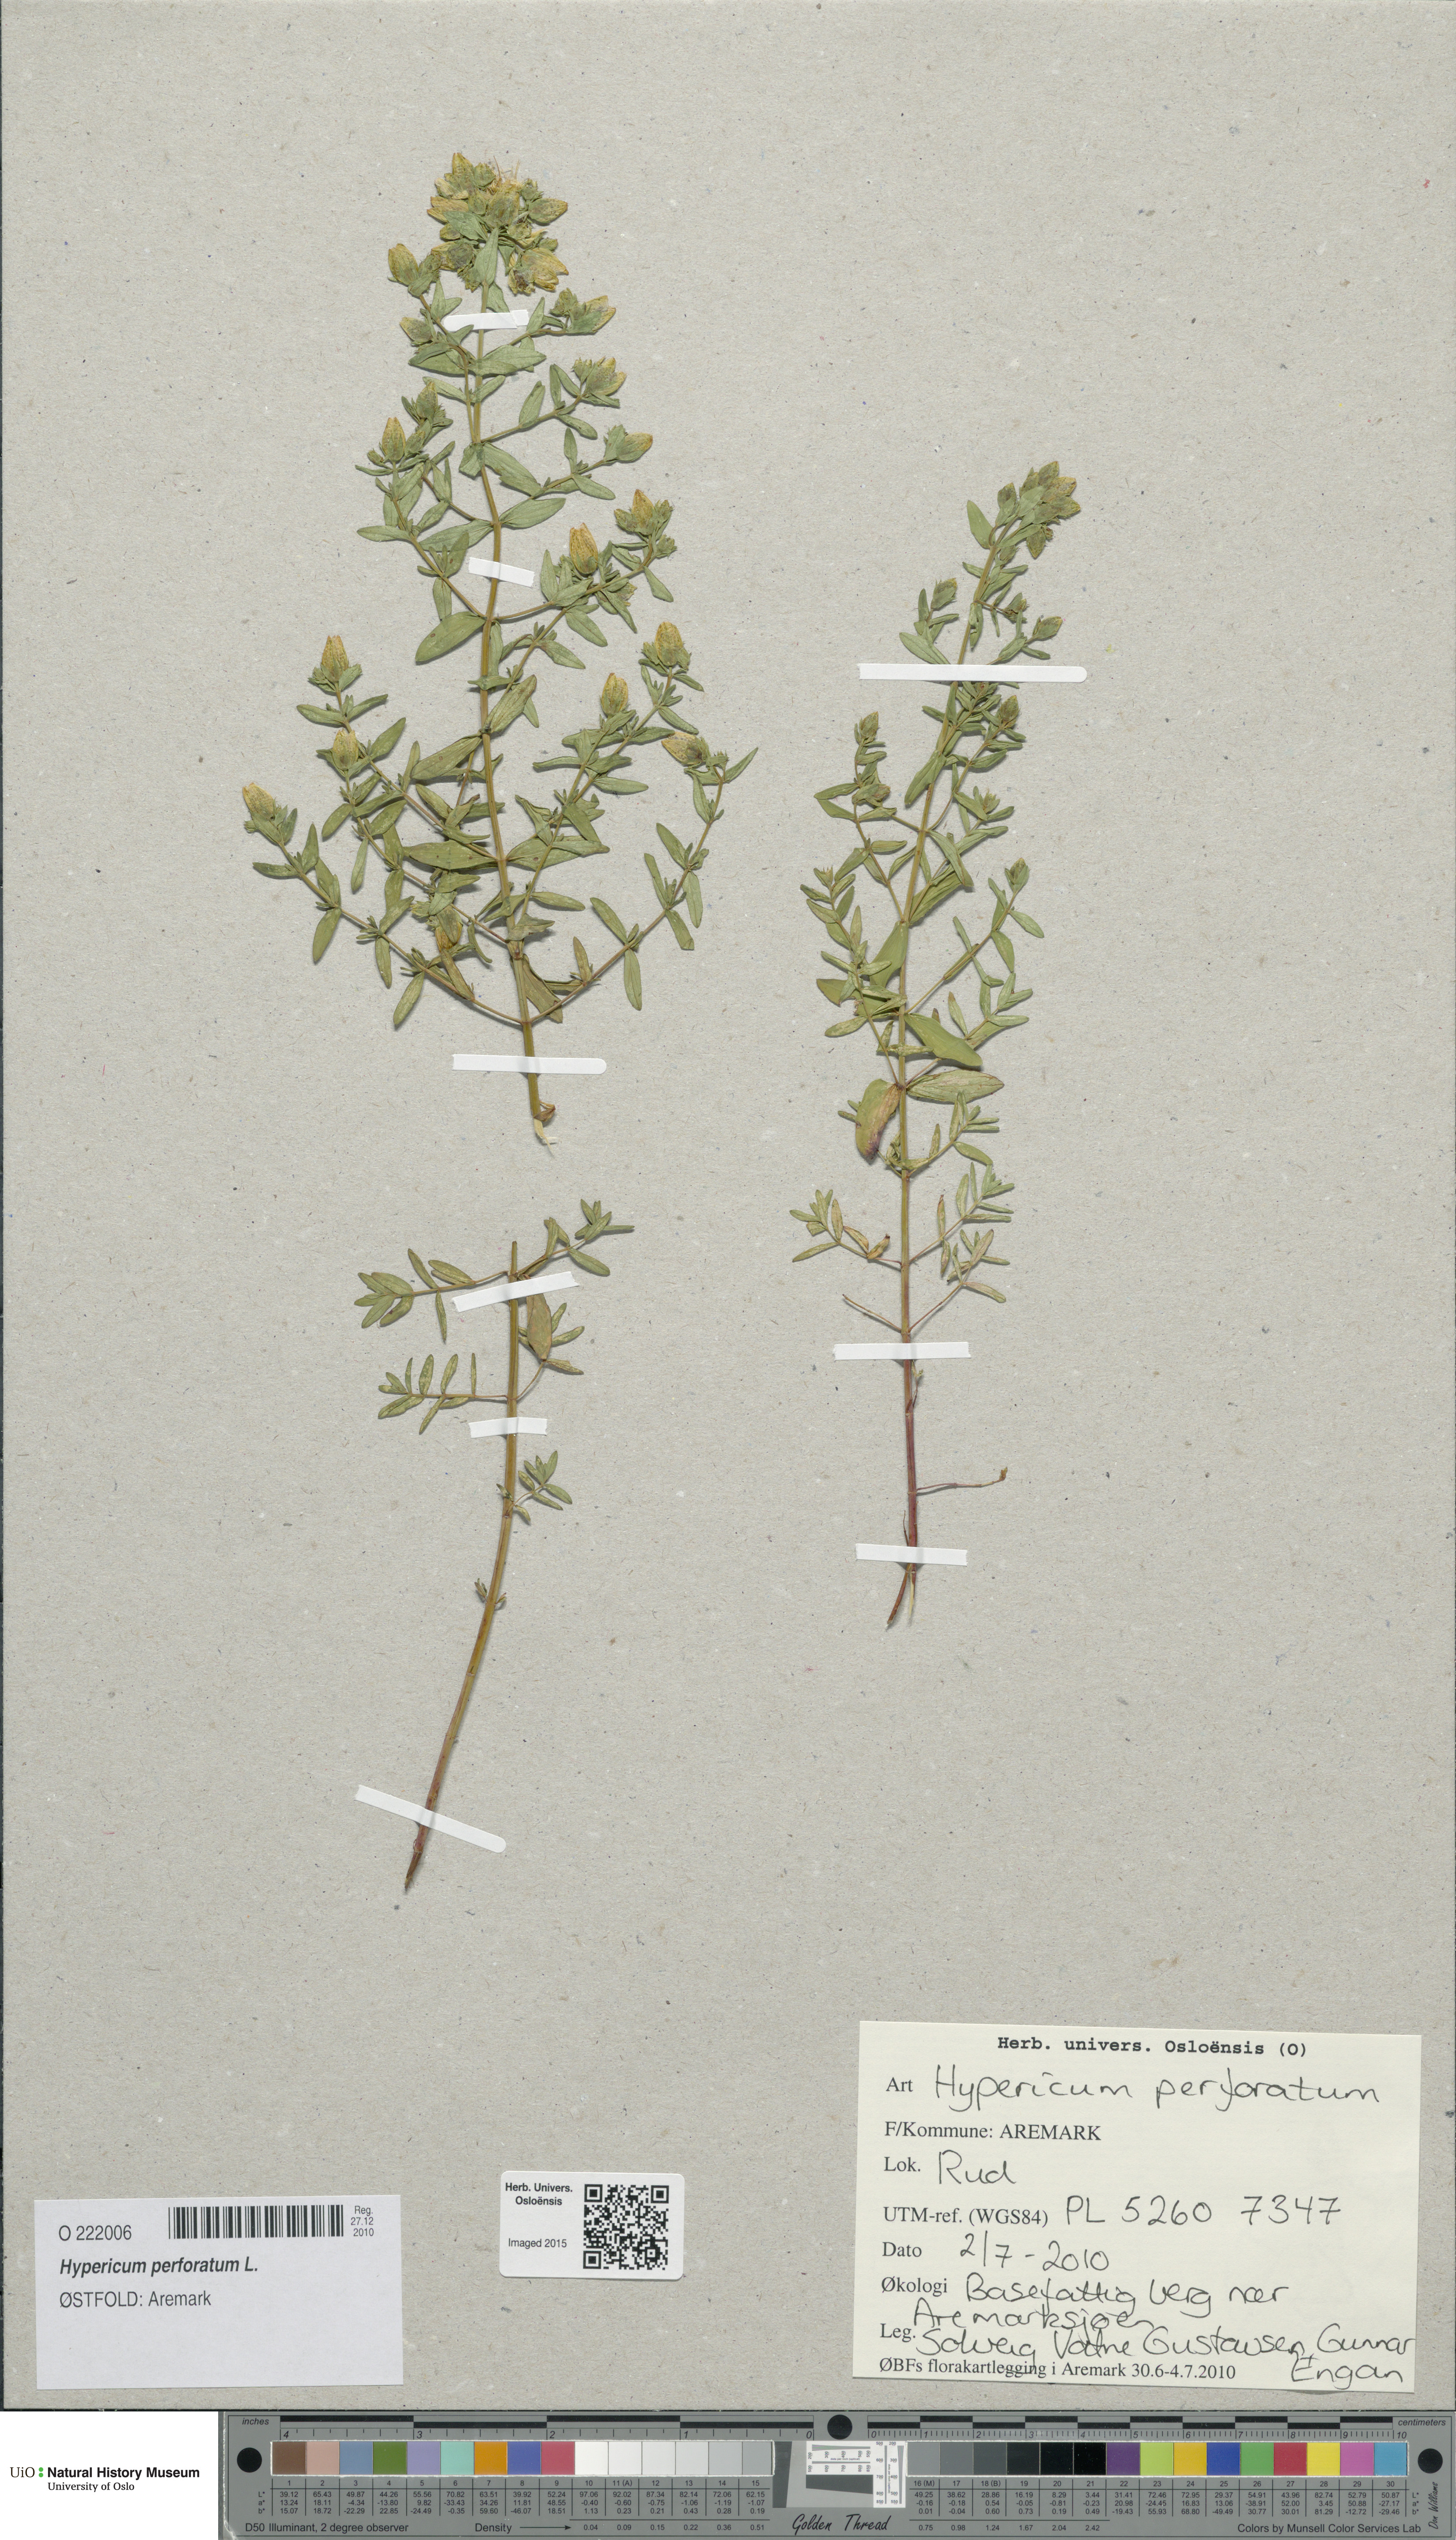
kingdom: Plantae
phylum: Tracheophyta
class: Magnoliopsida
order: Malpighiales
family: Hypericaceae
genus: Hypericum
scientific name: Hypericum perforatum
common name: Common st. johnswort
